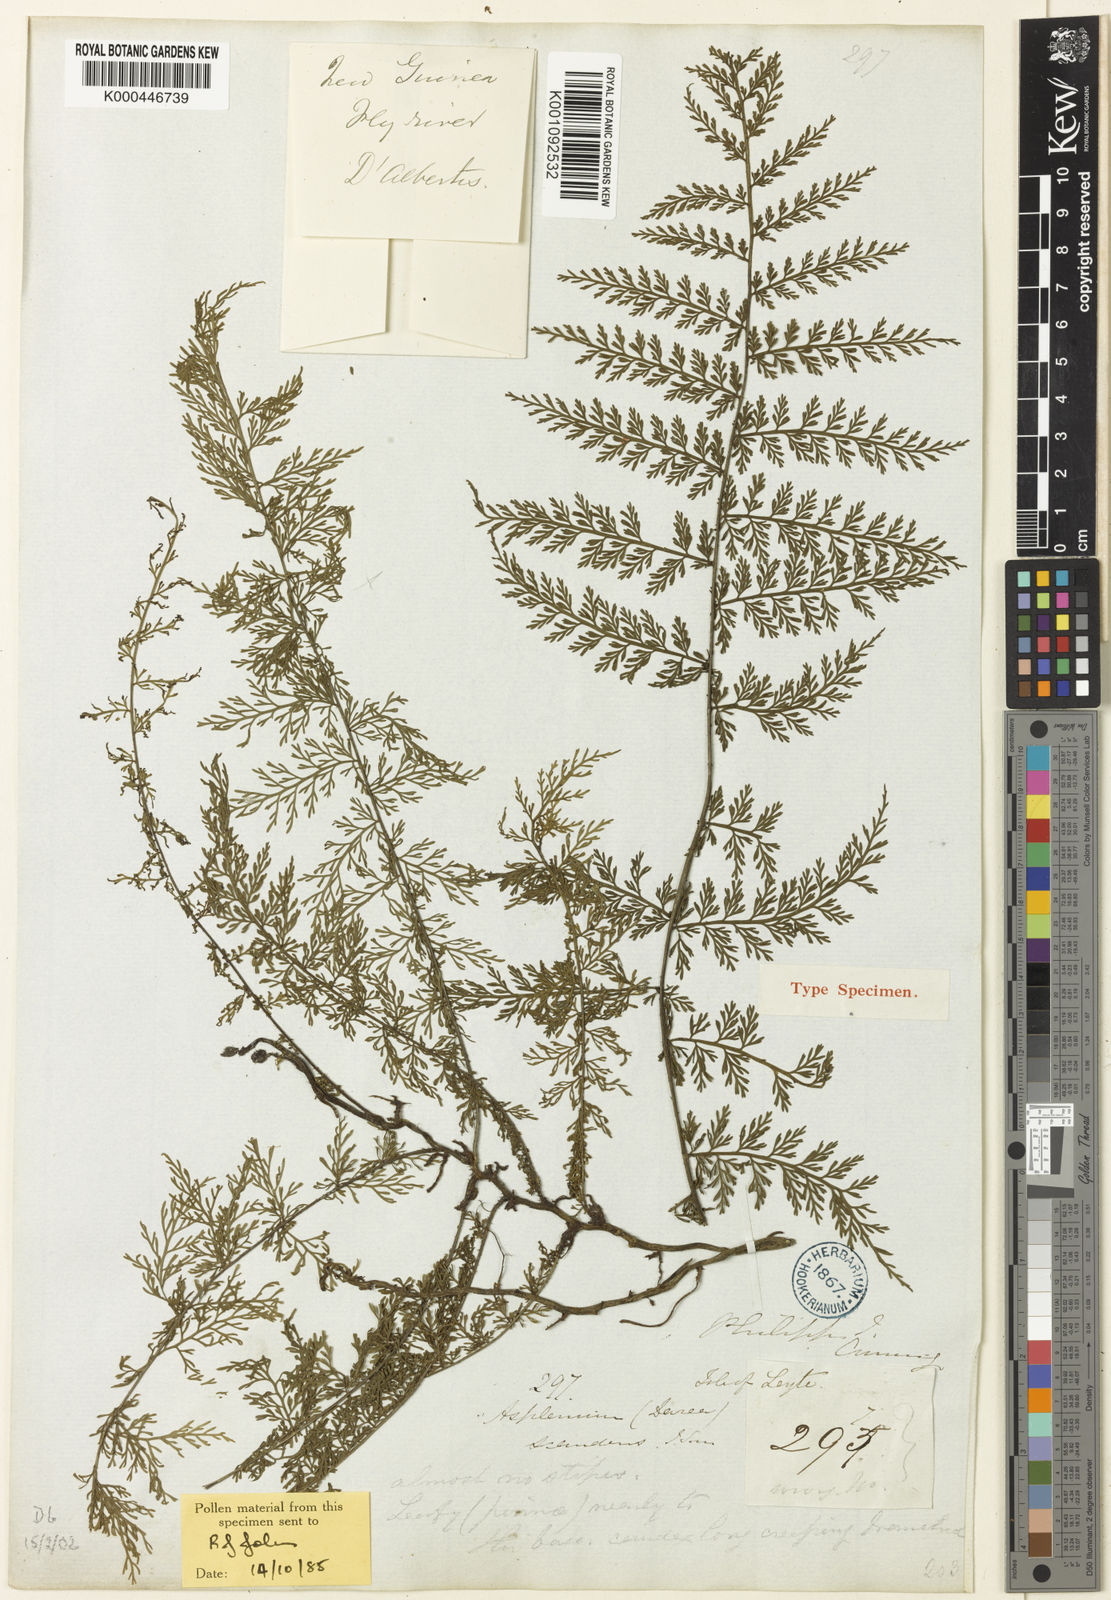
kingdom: Plantae
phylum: Tracheophyta
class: Polypodiopsida
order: Polypodiales
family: Aspleniaceae
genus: Asplenium
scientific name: Asplenium scandens
